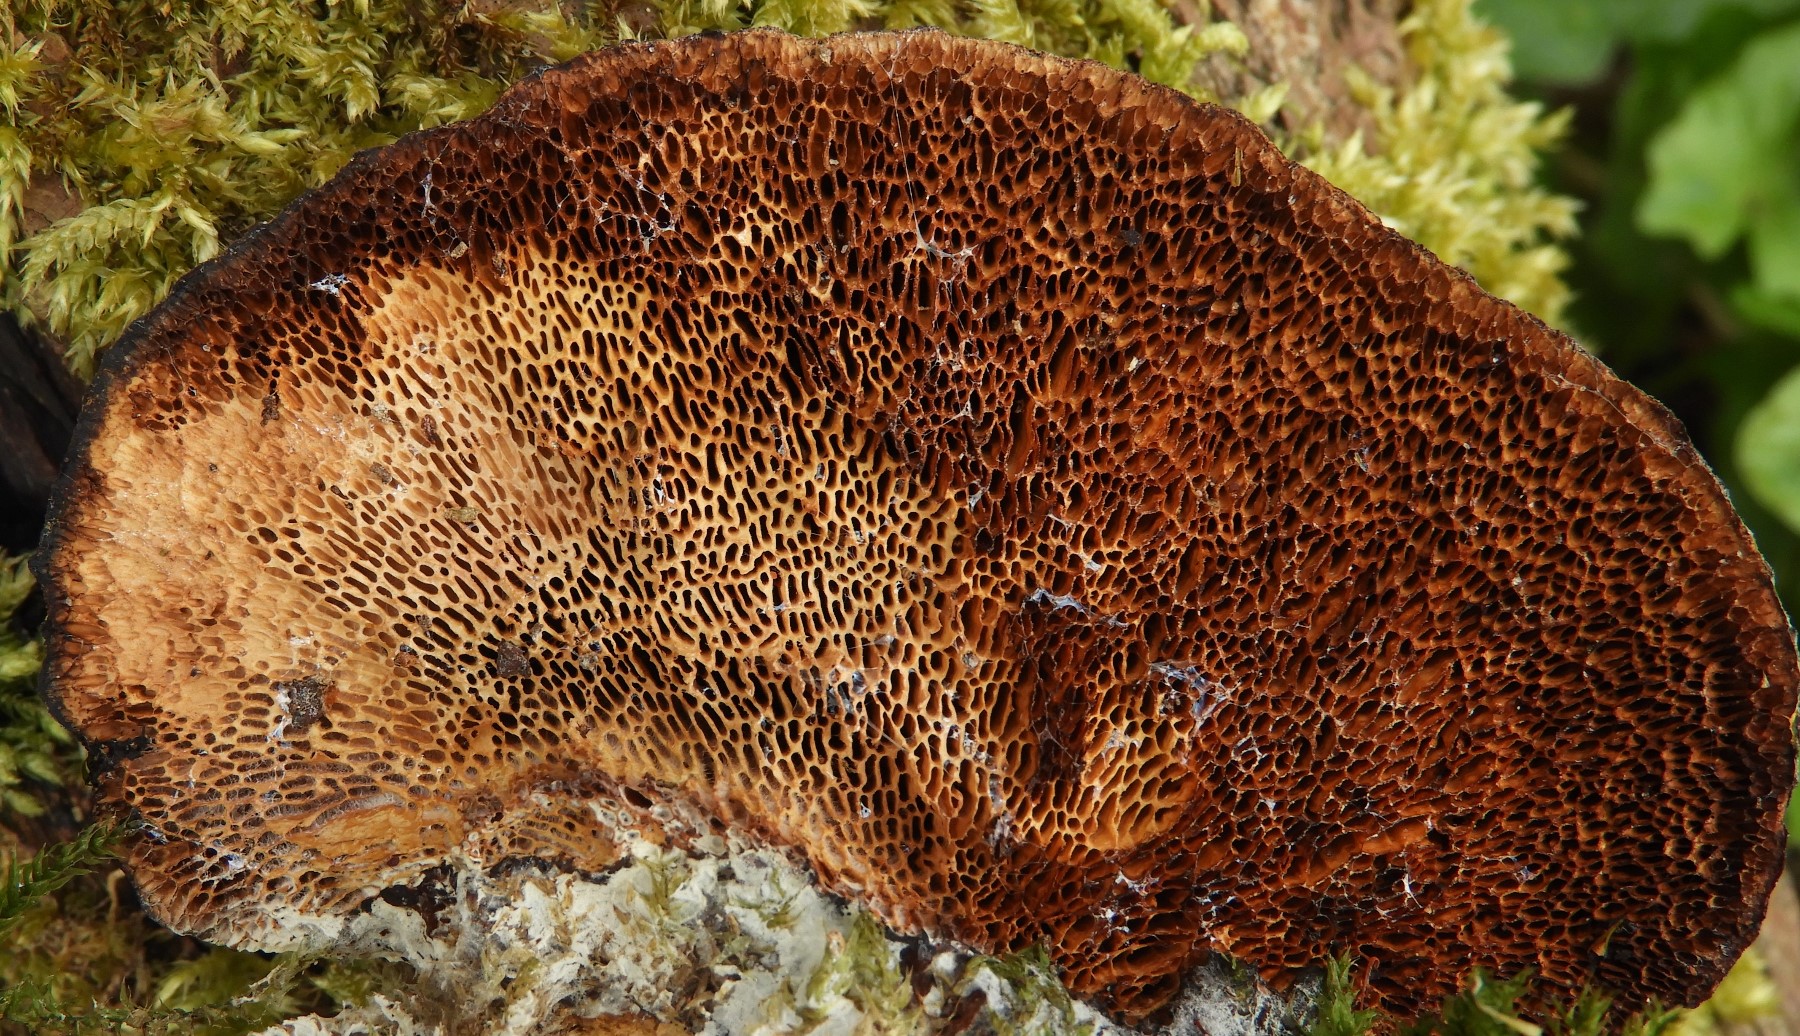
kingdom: Fungi
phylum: Basidiomycota
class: Agaricomycetes
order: Polyporales
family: Polyporaceae
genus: Daedaleopsis
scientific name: Daedaleopsis confragosa
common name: rødmende læderporesvamp
